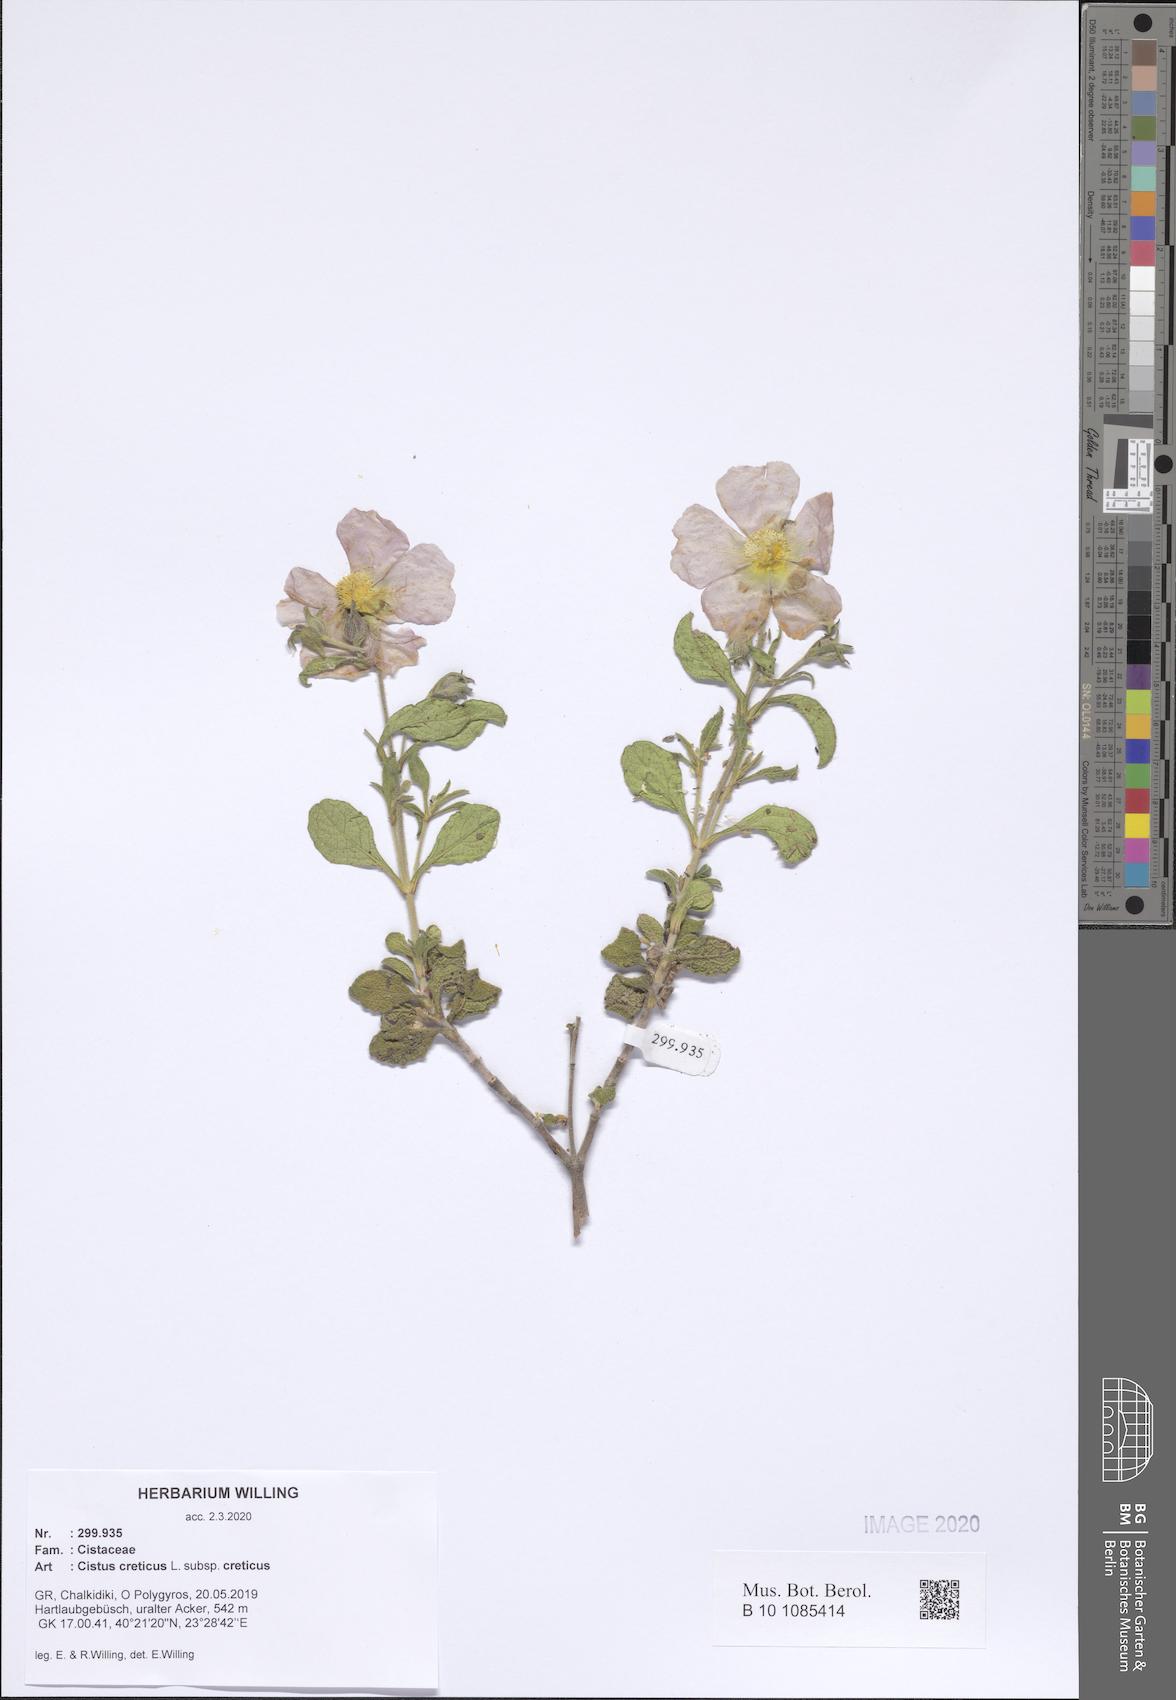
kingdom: Plantae
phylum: Tracheophyta
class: Magnoliopsida
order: Malvales
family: Cistaceae
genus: Cistus
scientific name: Cistus creticus
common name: Cretan rockrose
